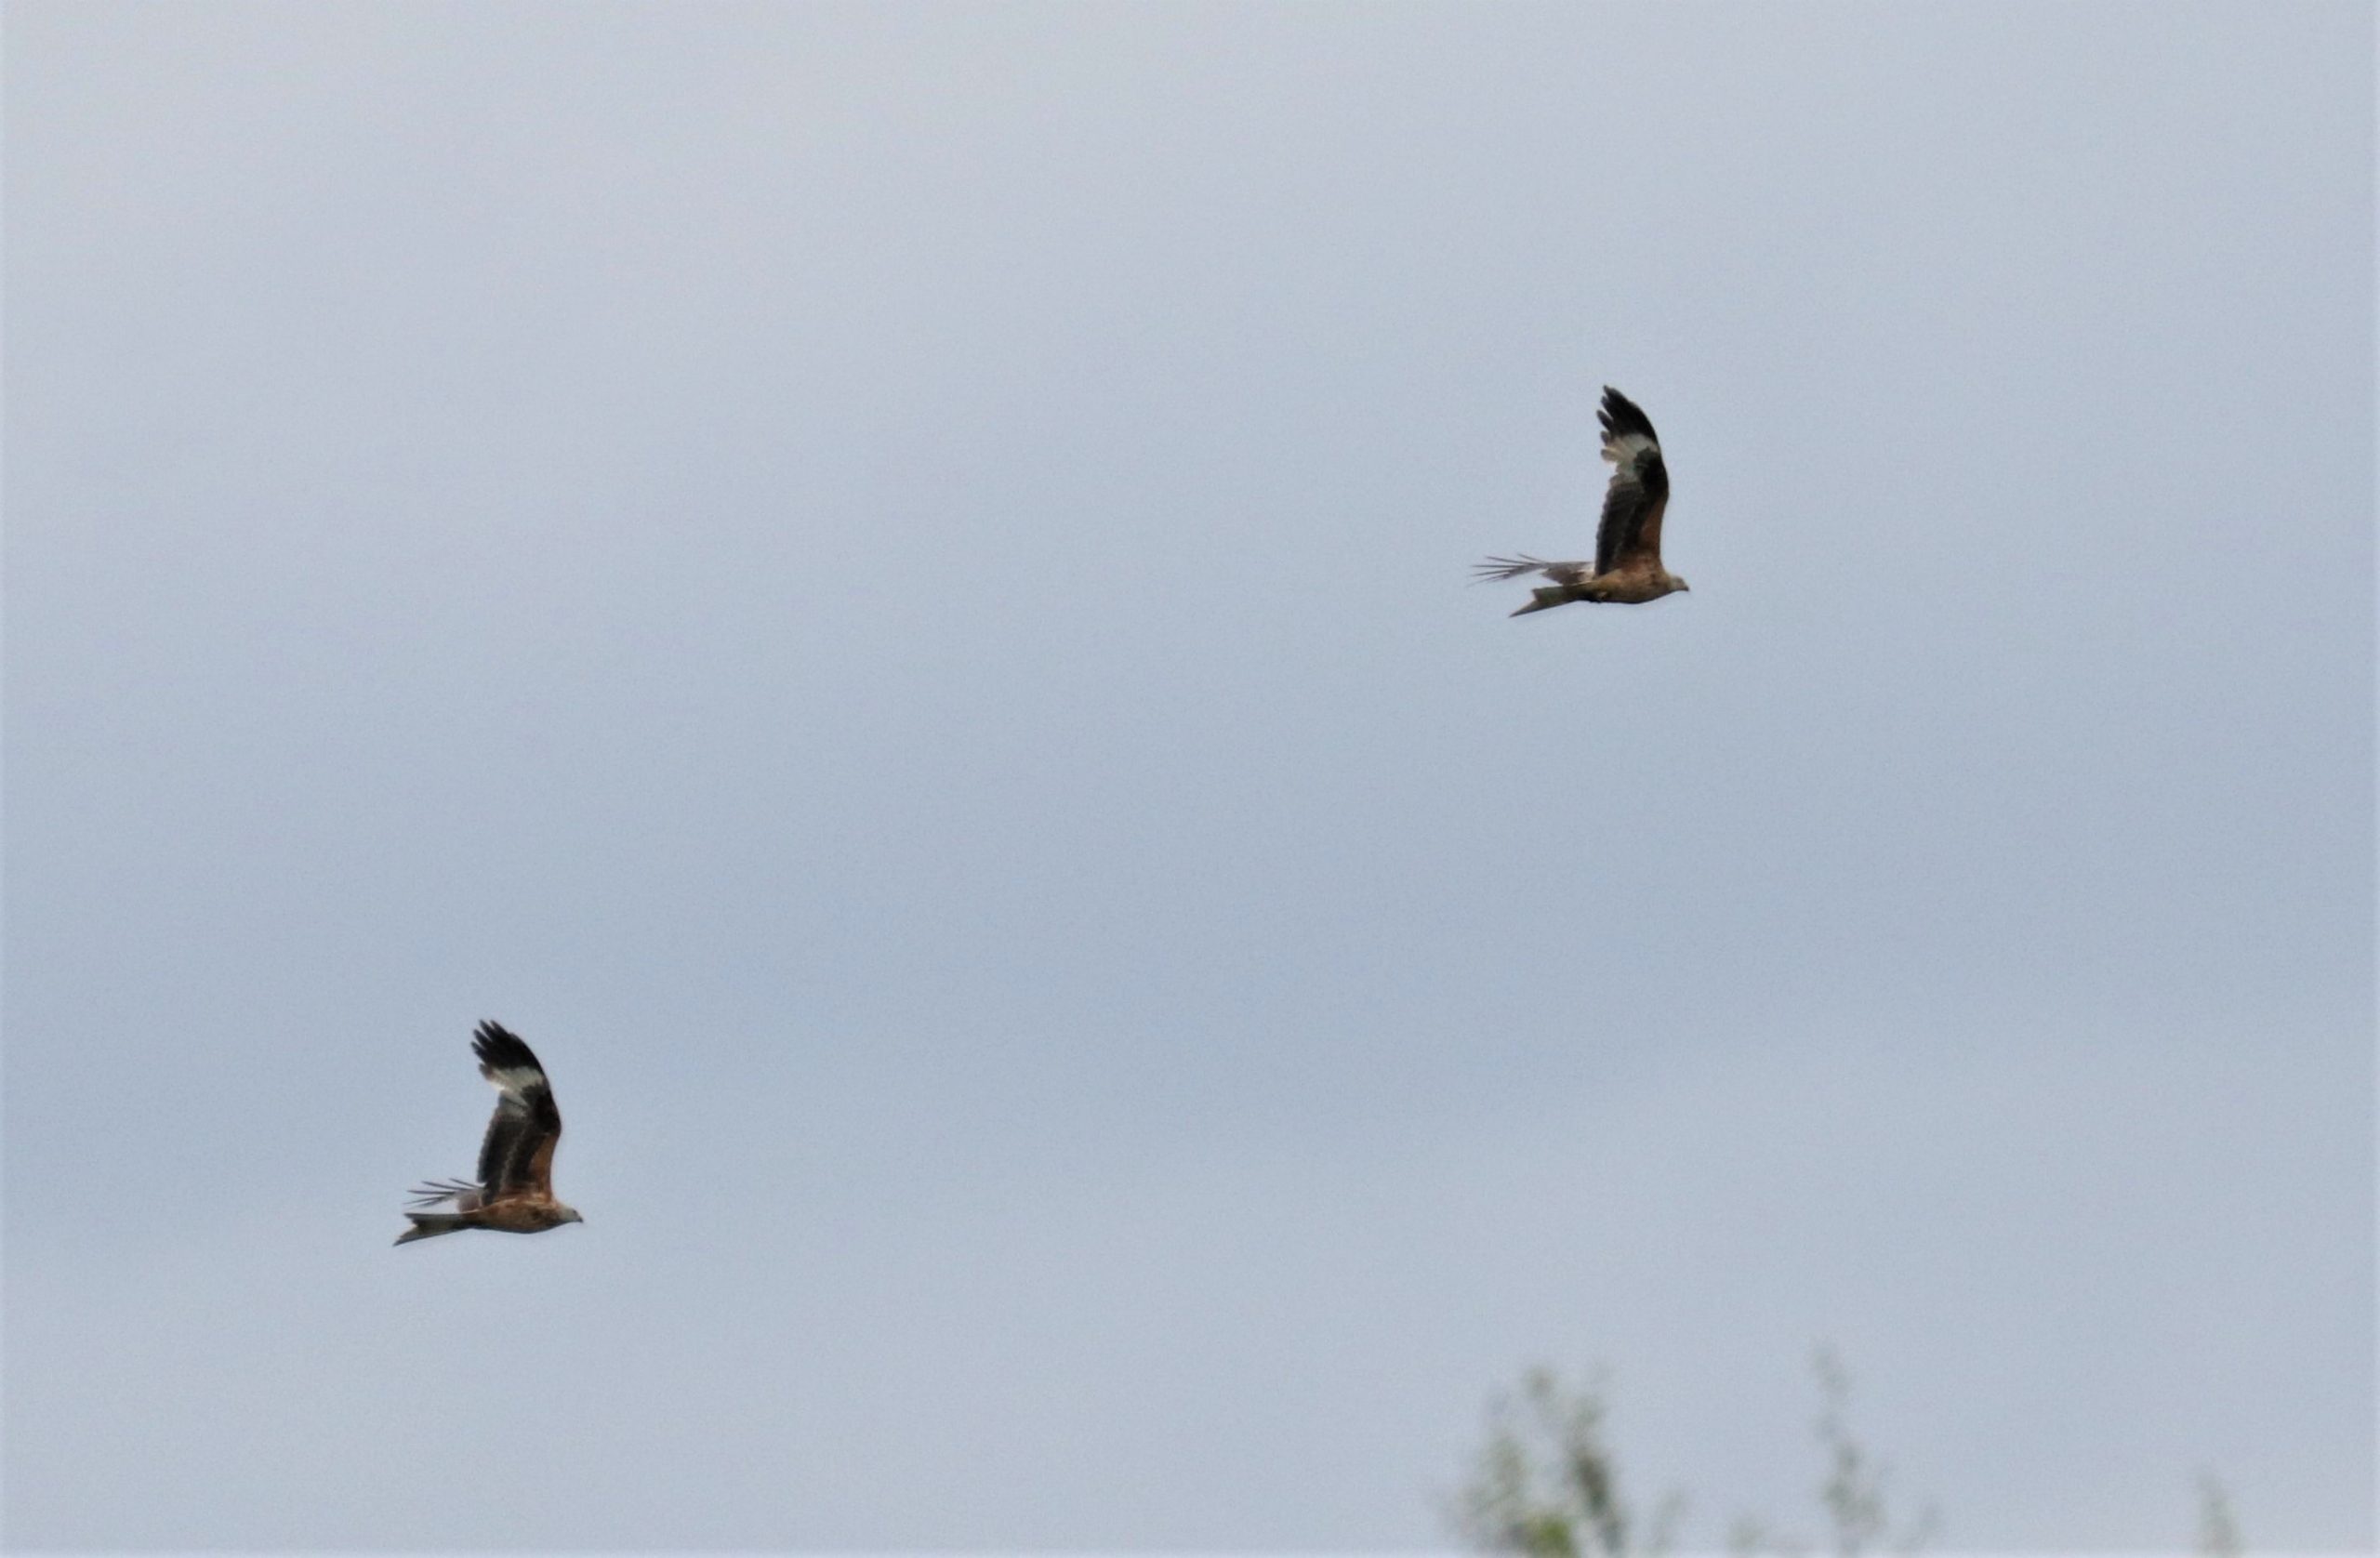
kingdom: Animalia
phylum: Chordata
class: Aves
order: Accipitriformes
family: Accipitridae
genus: Milvus
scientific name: Milvus milvus
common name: Rød glente
